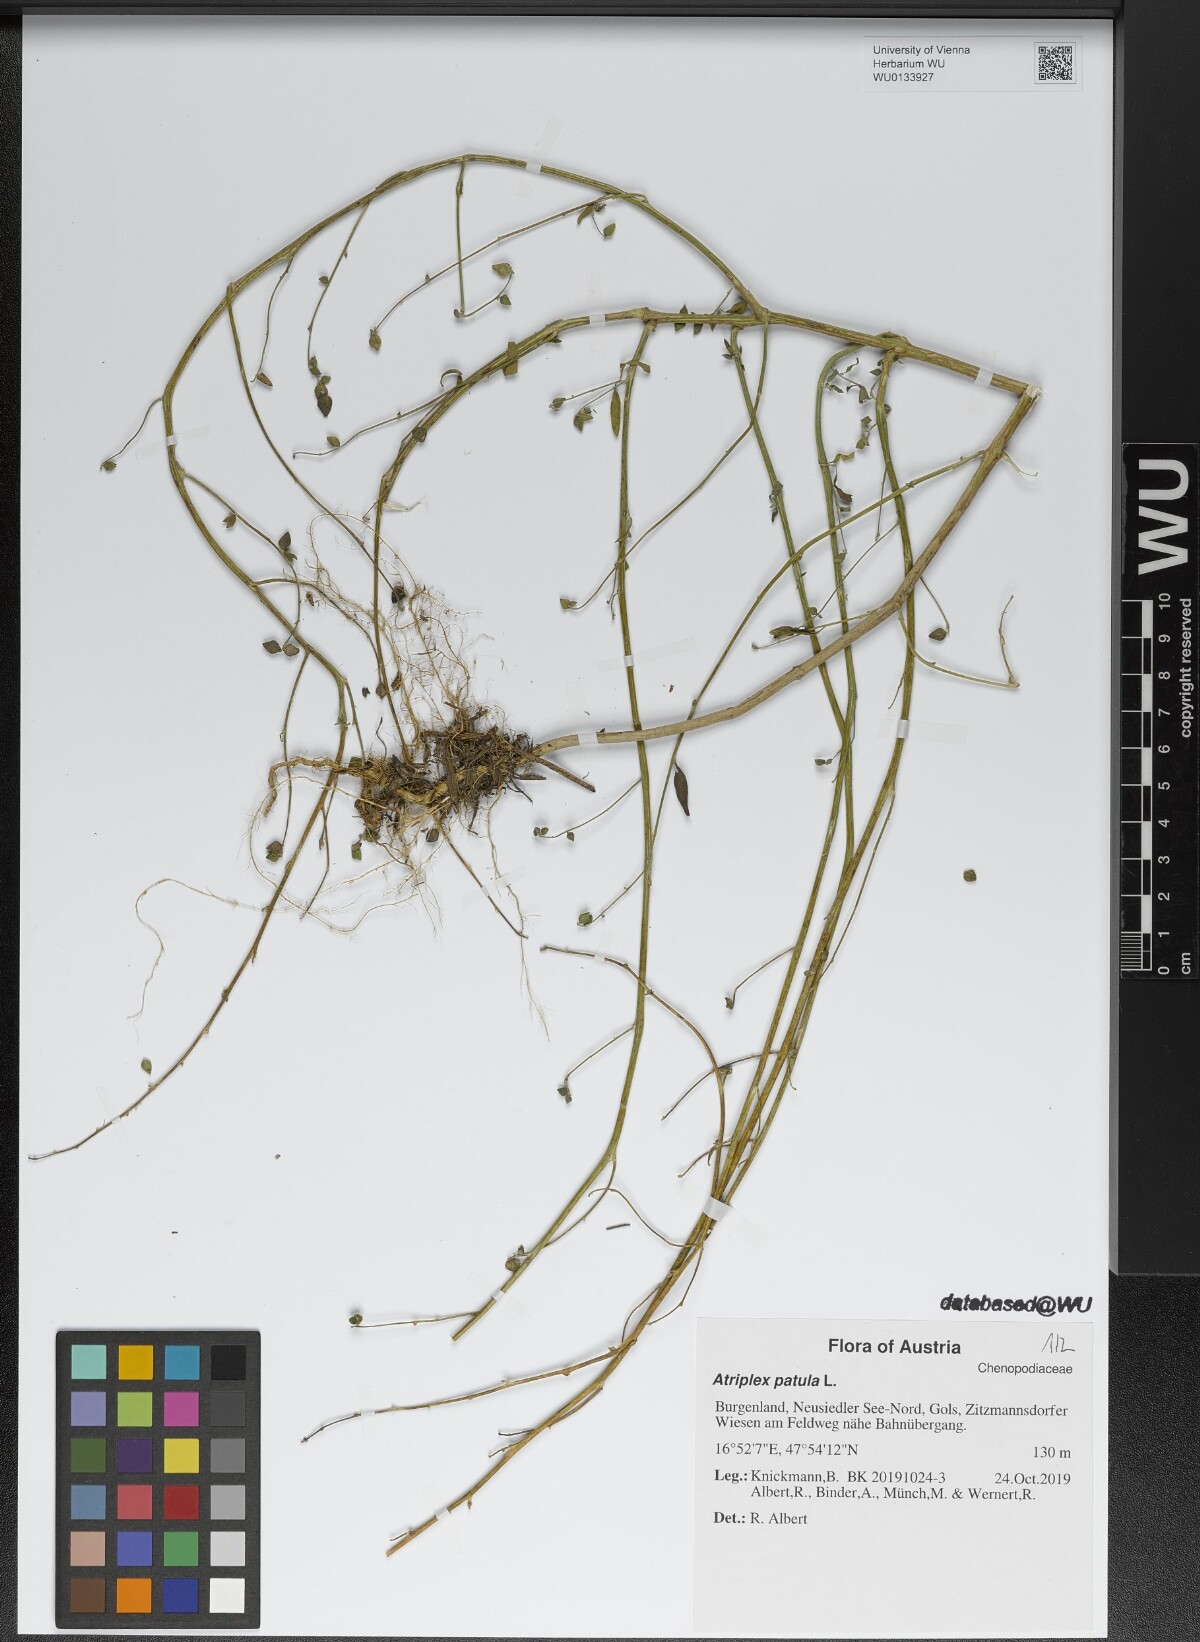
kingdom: Plantae
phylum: Tracheophyta
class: Magnoliopsida
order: Caryophyllales
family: Amaranthaceae
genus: Atriplex
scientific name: Atriplex patula
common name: Common orache
